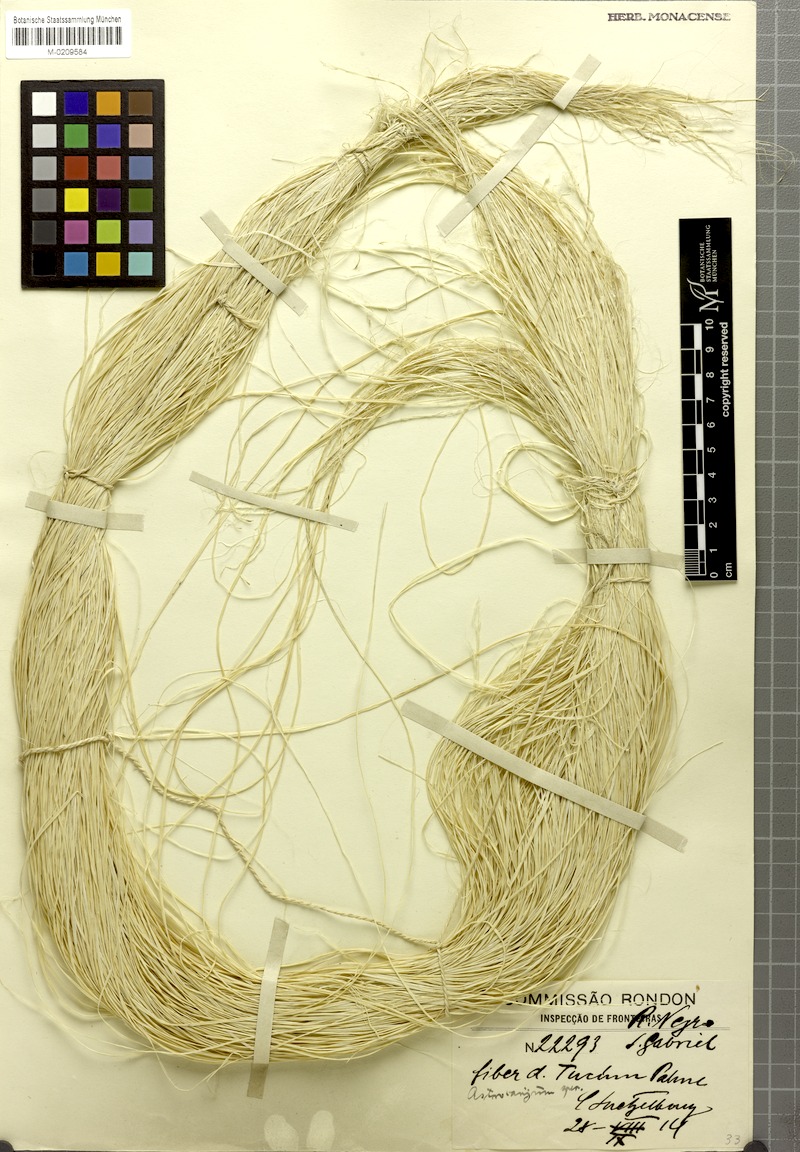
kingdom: Plantae
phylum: Tracheophyta
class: Liliopsida
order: Arecales
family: Arecaceae
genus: Astrocaryum
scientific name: Astrocaryum
